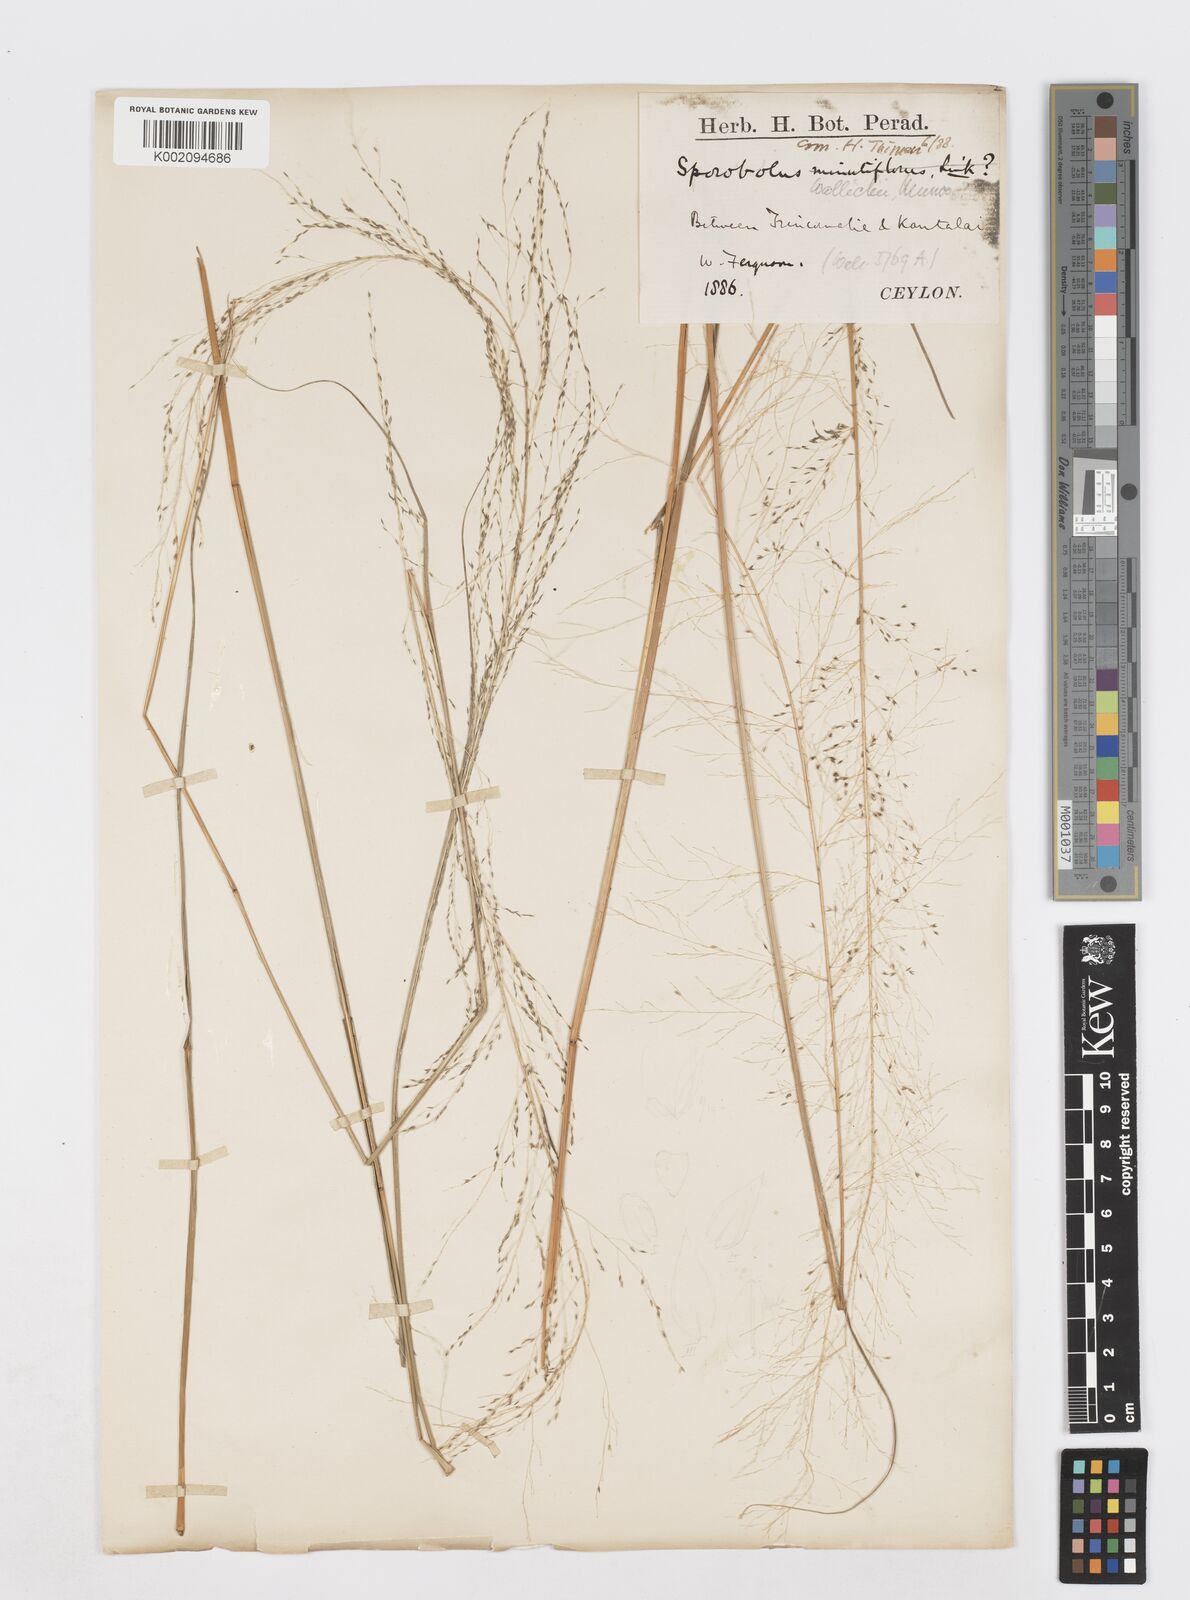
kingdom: Plantae
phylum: Tracheophyta
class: Liliopsida
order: Poales
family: Poaceae
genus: Sporobolus
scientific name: Sporobolus wallichii
